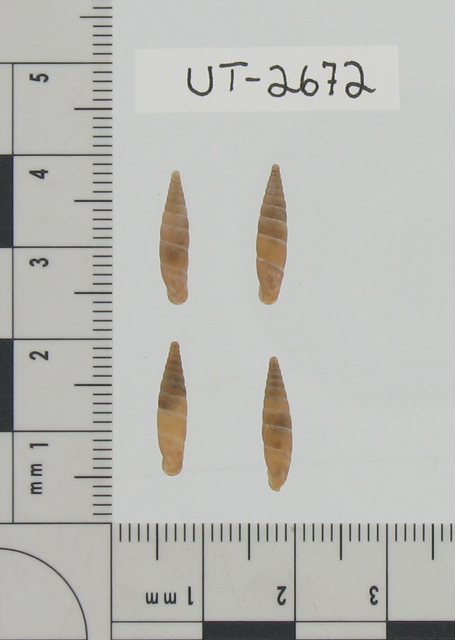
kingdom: Animalia
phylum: Mollusca
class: Gastropoda
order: Stylommatophora
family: Clausiliidae
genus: Cochlodina
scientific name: Cochlodina costata
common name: Mountain door snail
